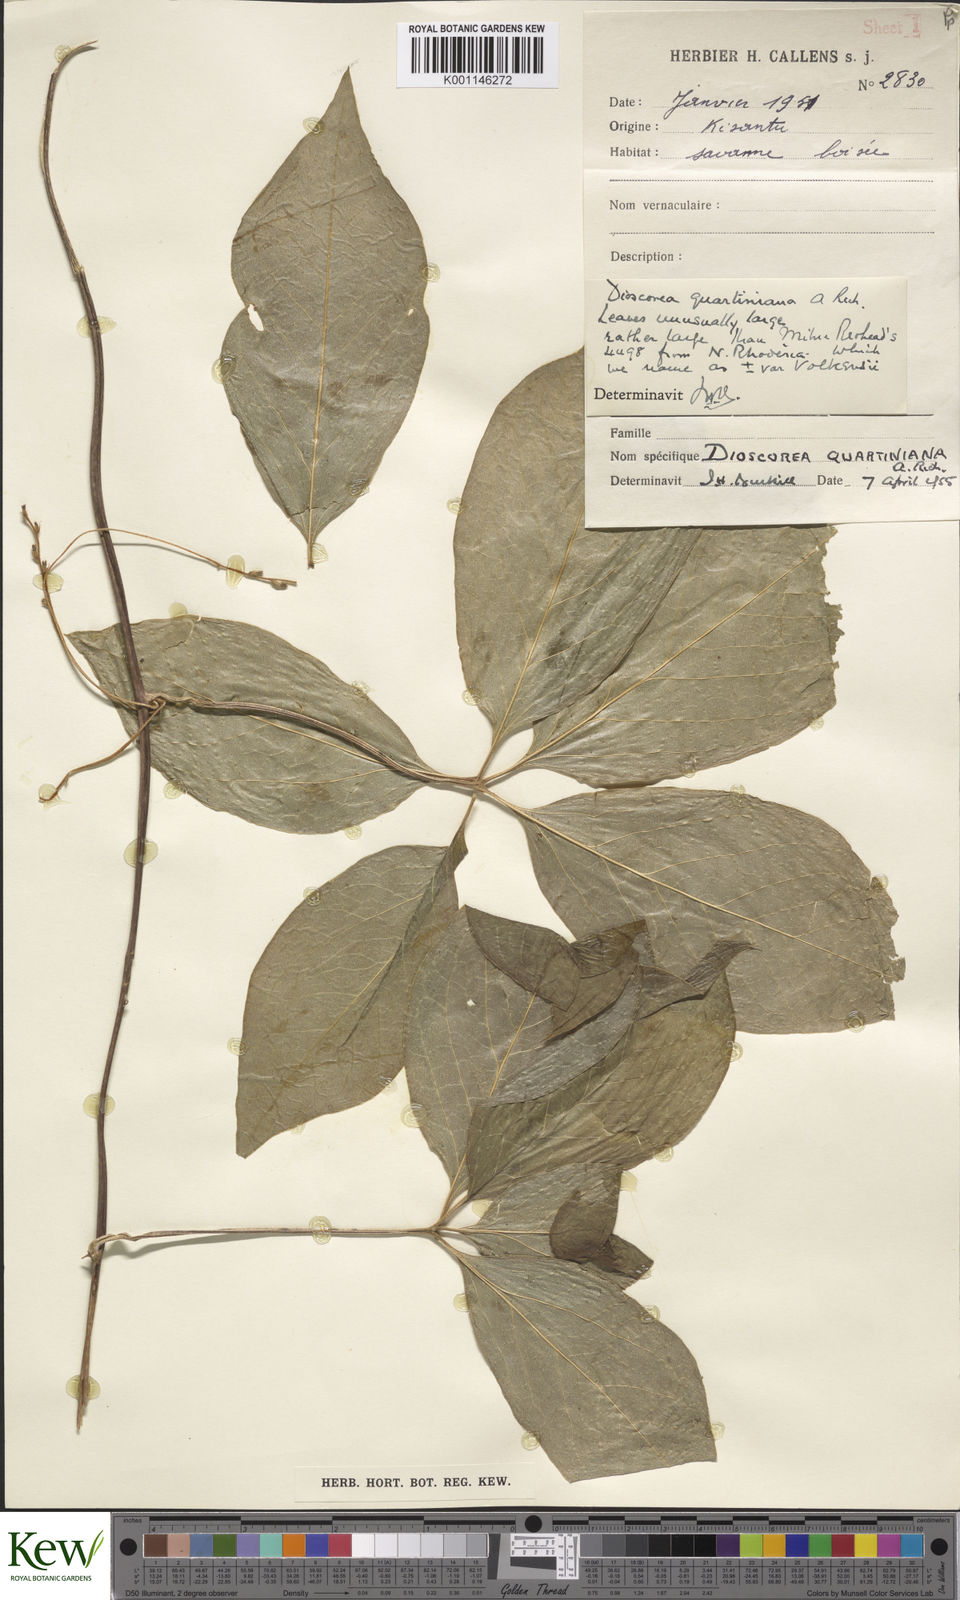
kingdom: Plantae
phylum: Tracheophyta
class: Liliopsida
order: Dioscoreales
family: Dioscoreaceae
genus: Dioscorea
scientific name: Dioscorea quartiniana
